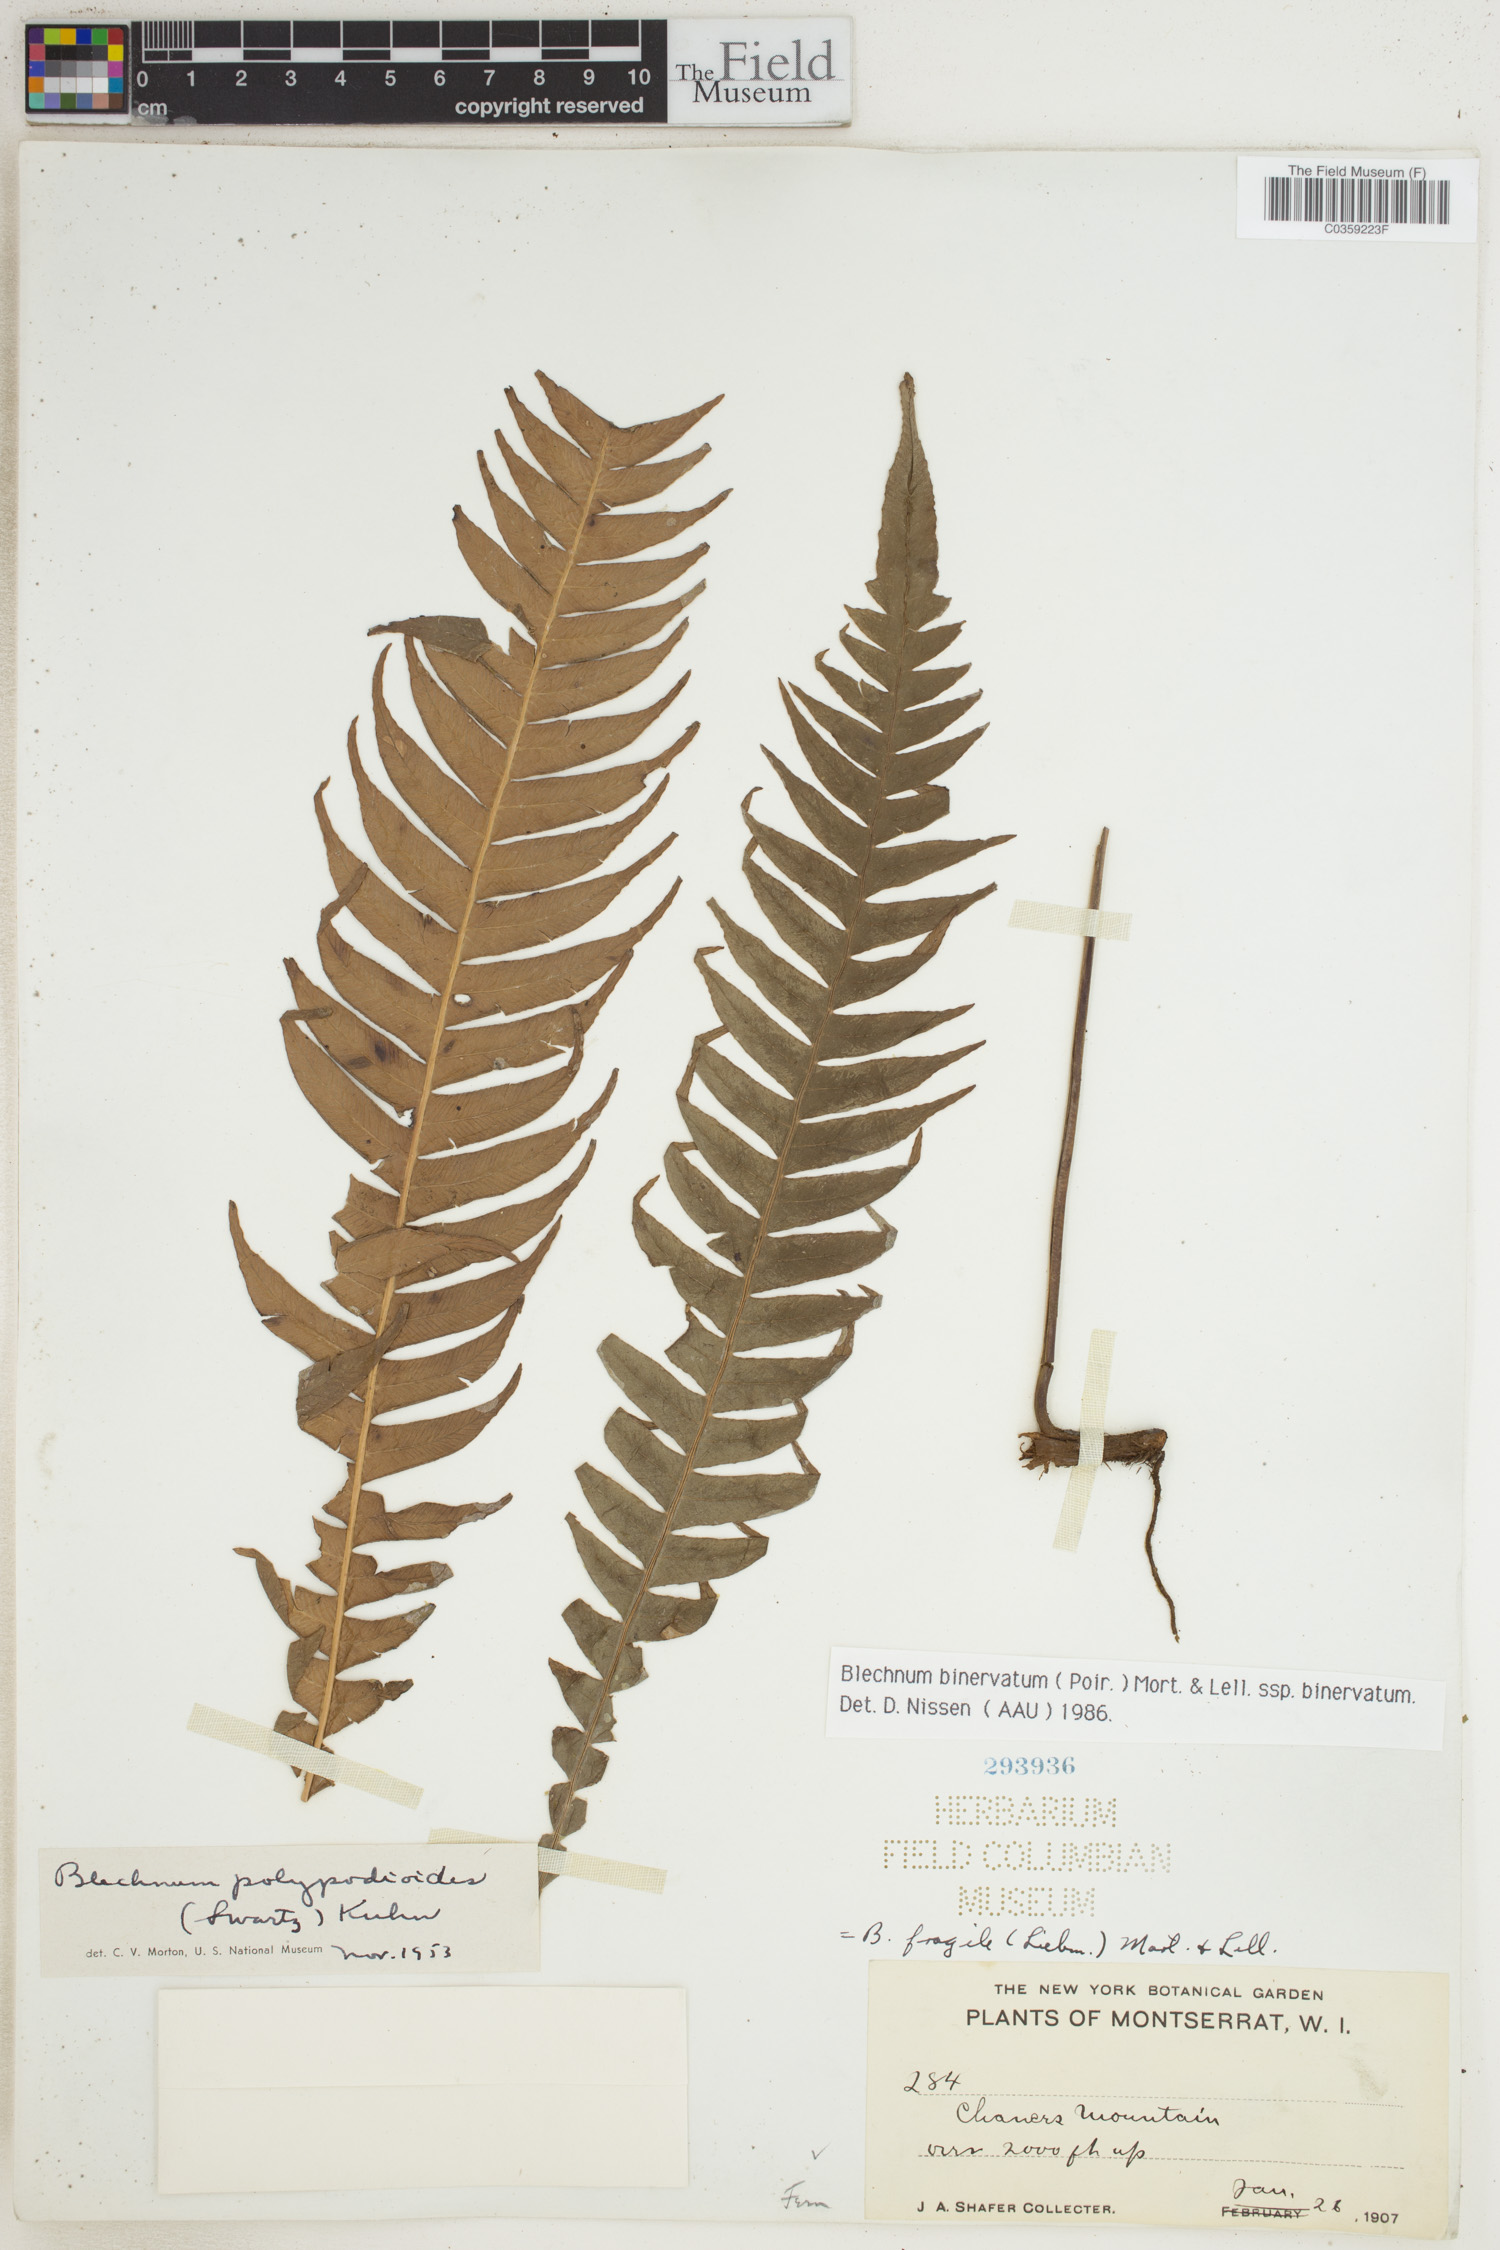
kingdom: Plantae
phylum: Tracheophyta
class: Polypodiopsida
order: Polypodiales
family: Blechnaceae
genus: Lomaridium
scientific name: Lomaridium binervatum
